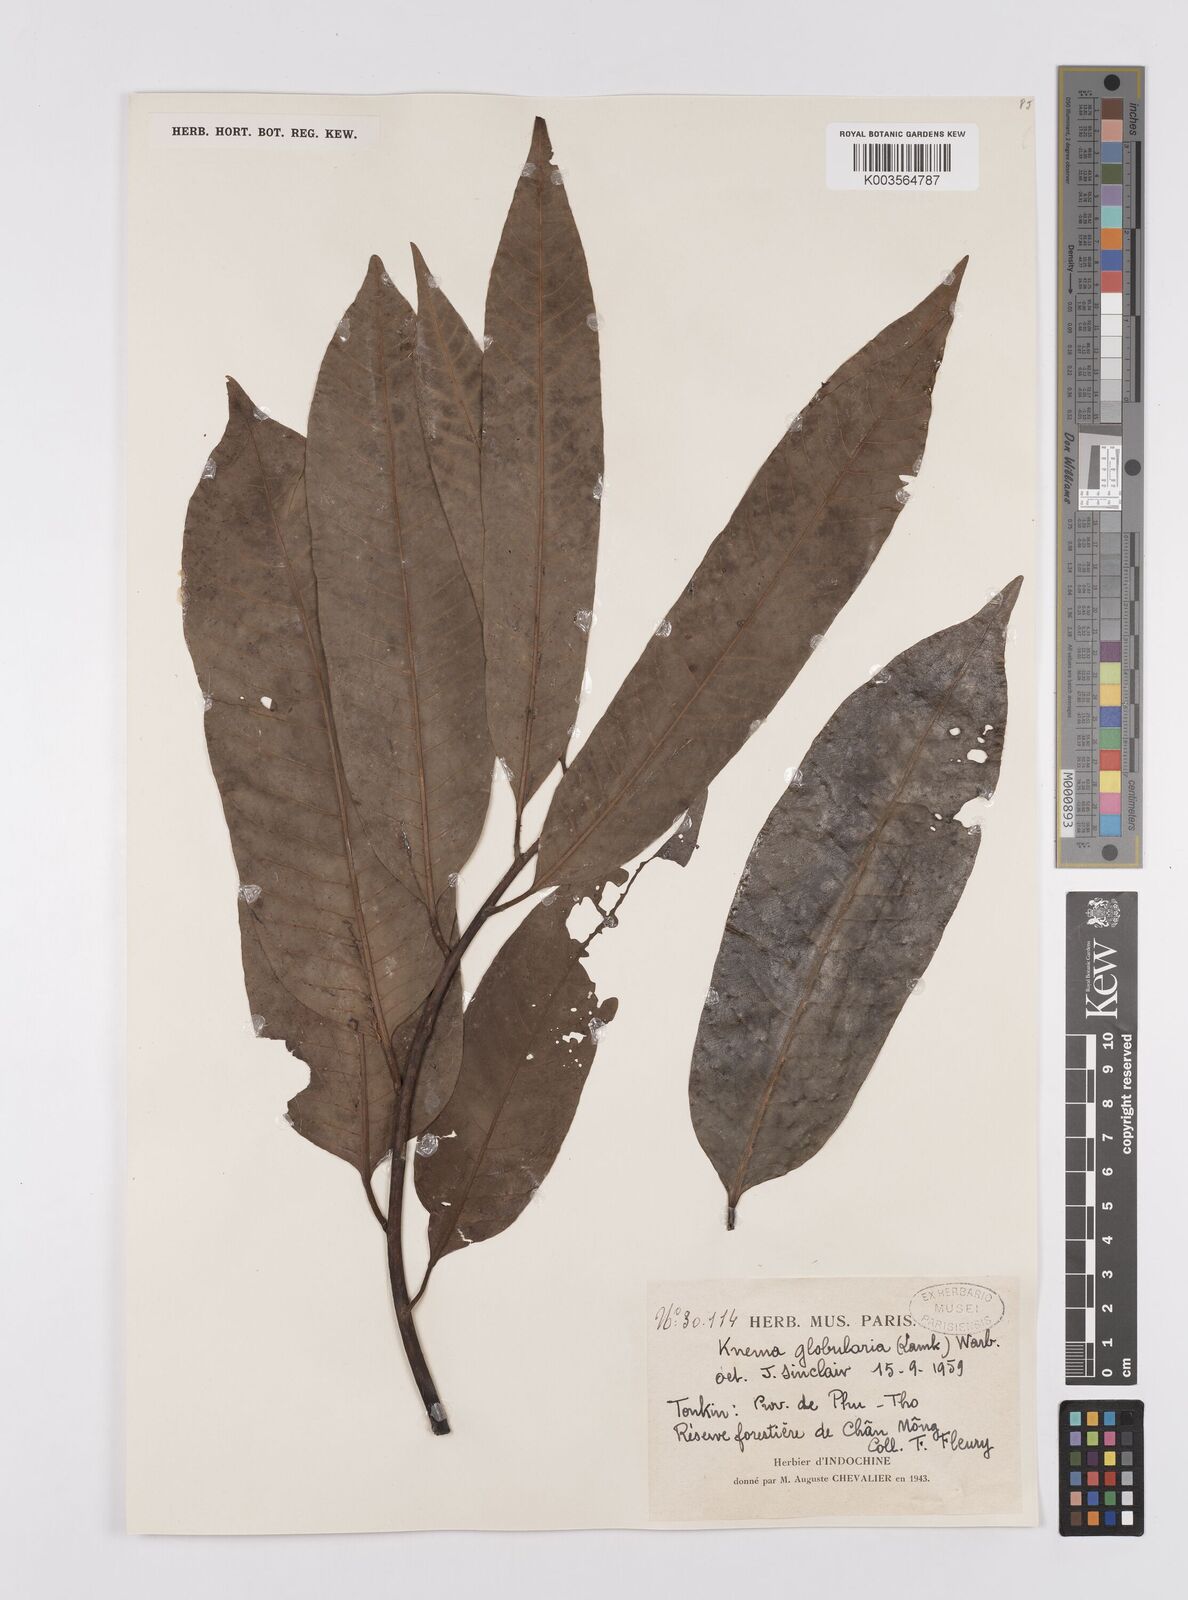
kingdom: Plantae
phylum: Tracheophyta
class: Magnoliopsida
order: Magnoliales
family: Myristicaceae
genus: Knema
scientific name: Knema globularia
